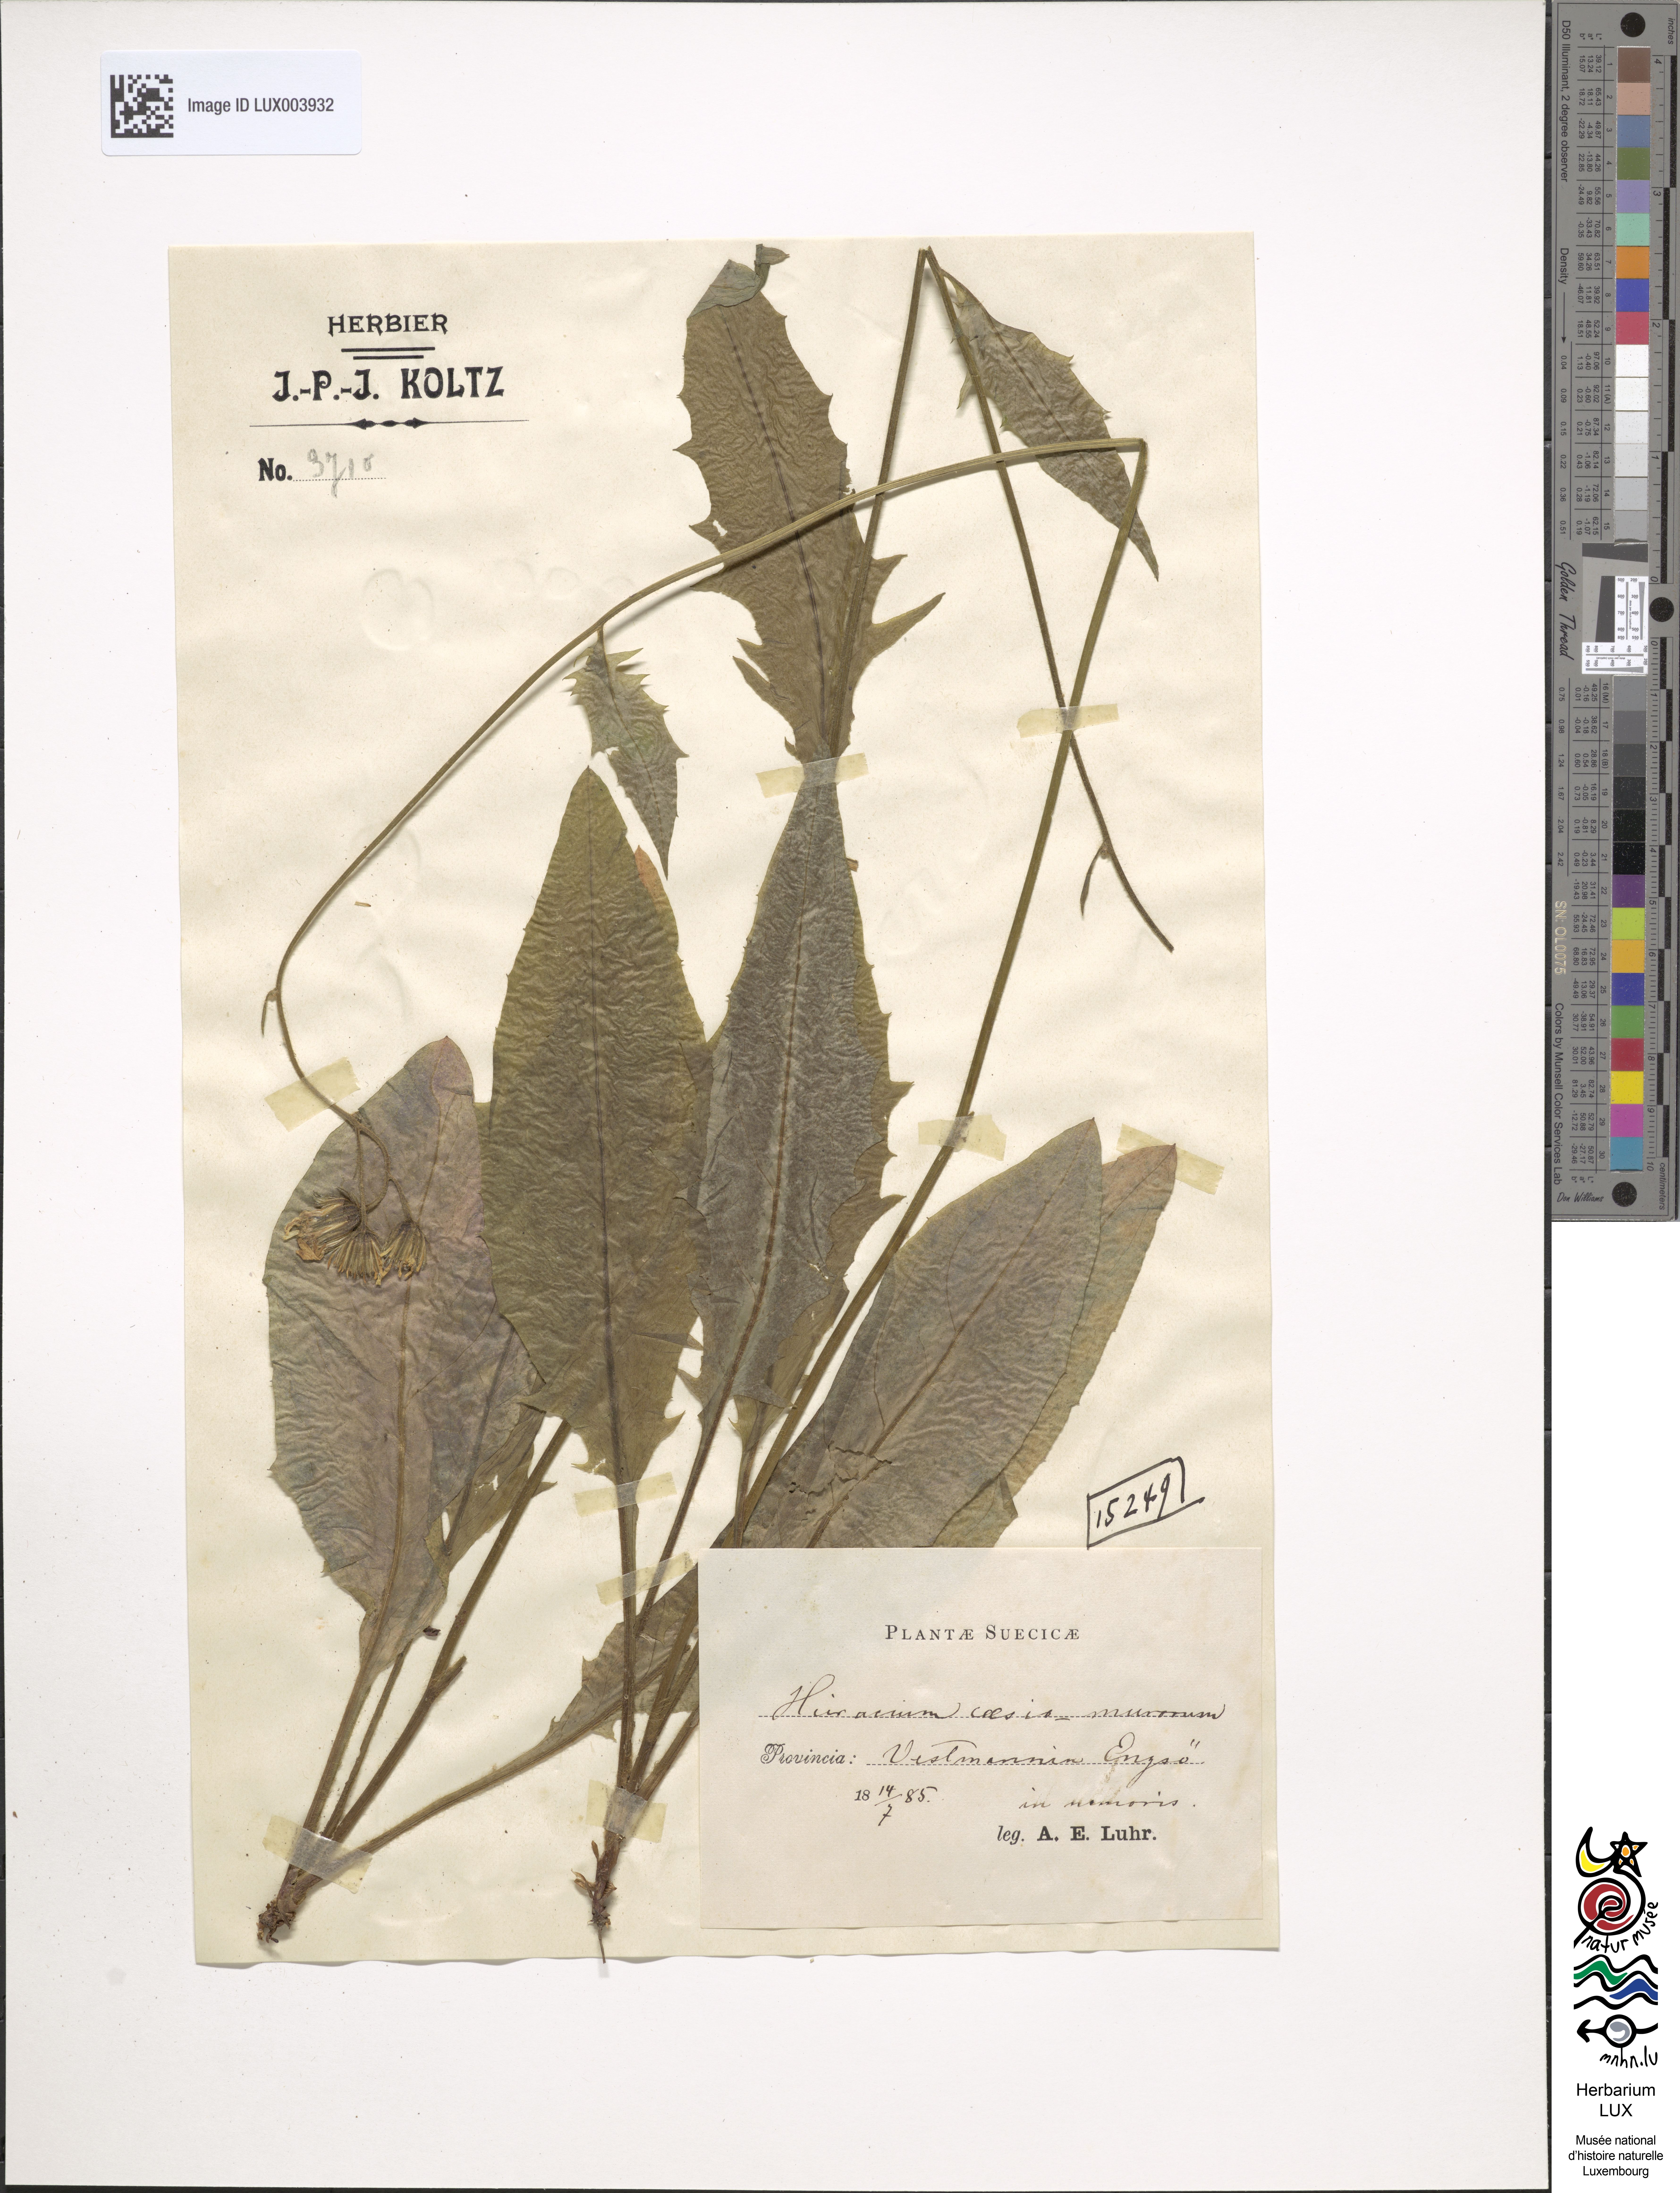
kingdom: Plantae
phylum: Tracheophyta
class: Magnoliopsida
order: Asterales
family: Asteraceae
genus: Hieracium
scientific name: Hieracium caesium
